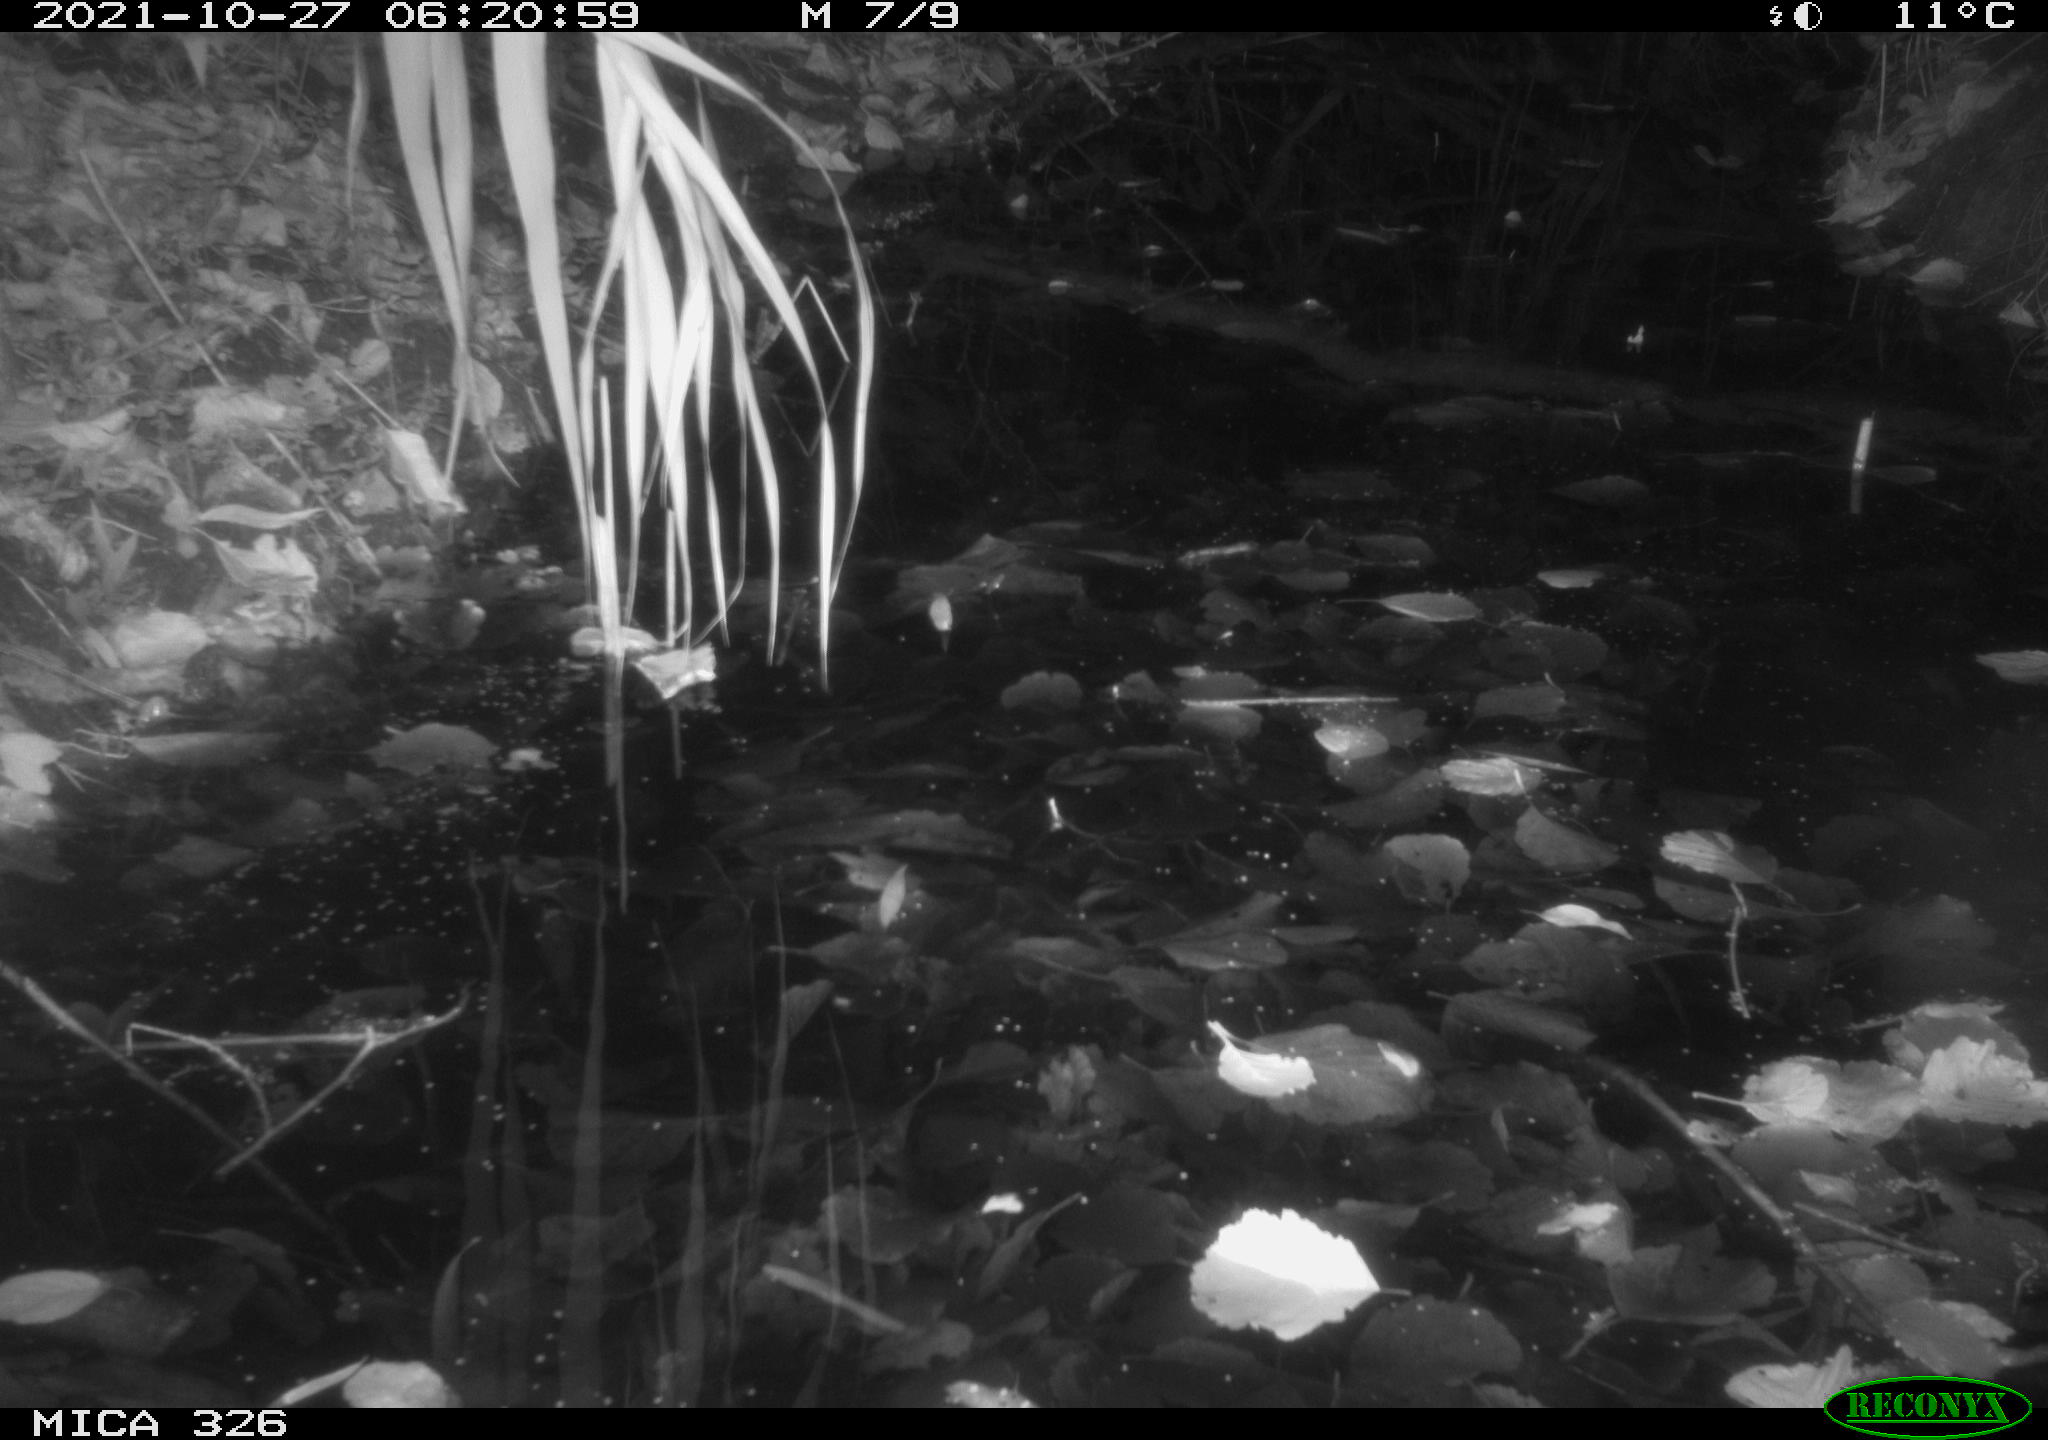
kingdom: Animalia
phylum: Chordata
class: Mammalia
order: Rodentia
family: Muridae
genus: Rattus
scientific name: Rattus norvegicus
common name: Brown rat
